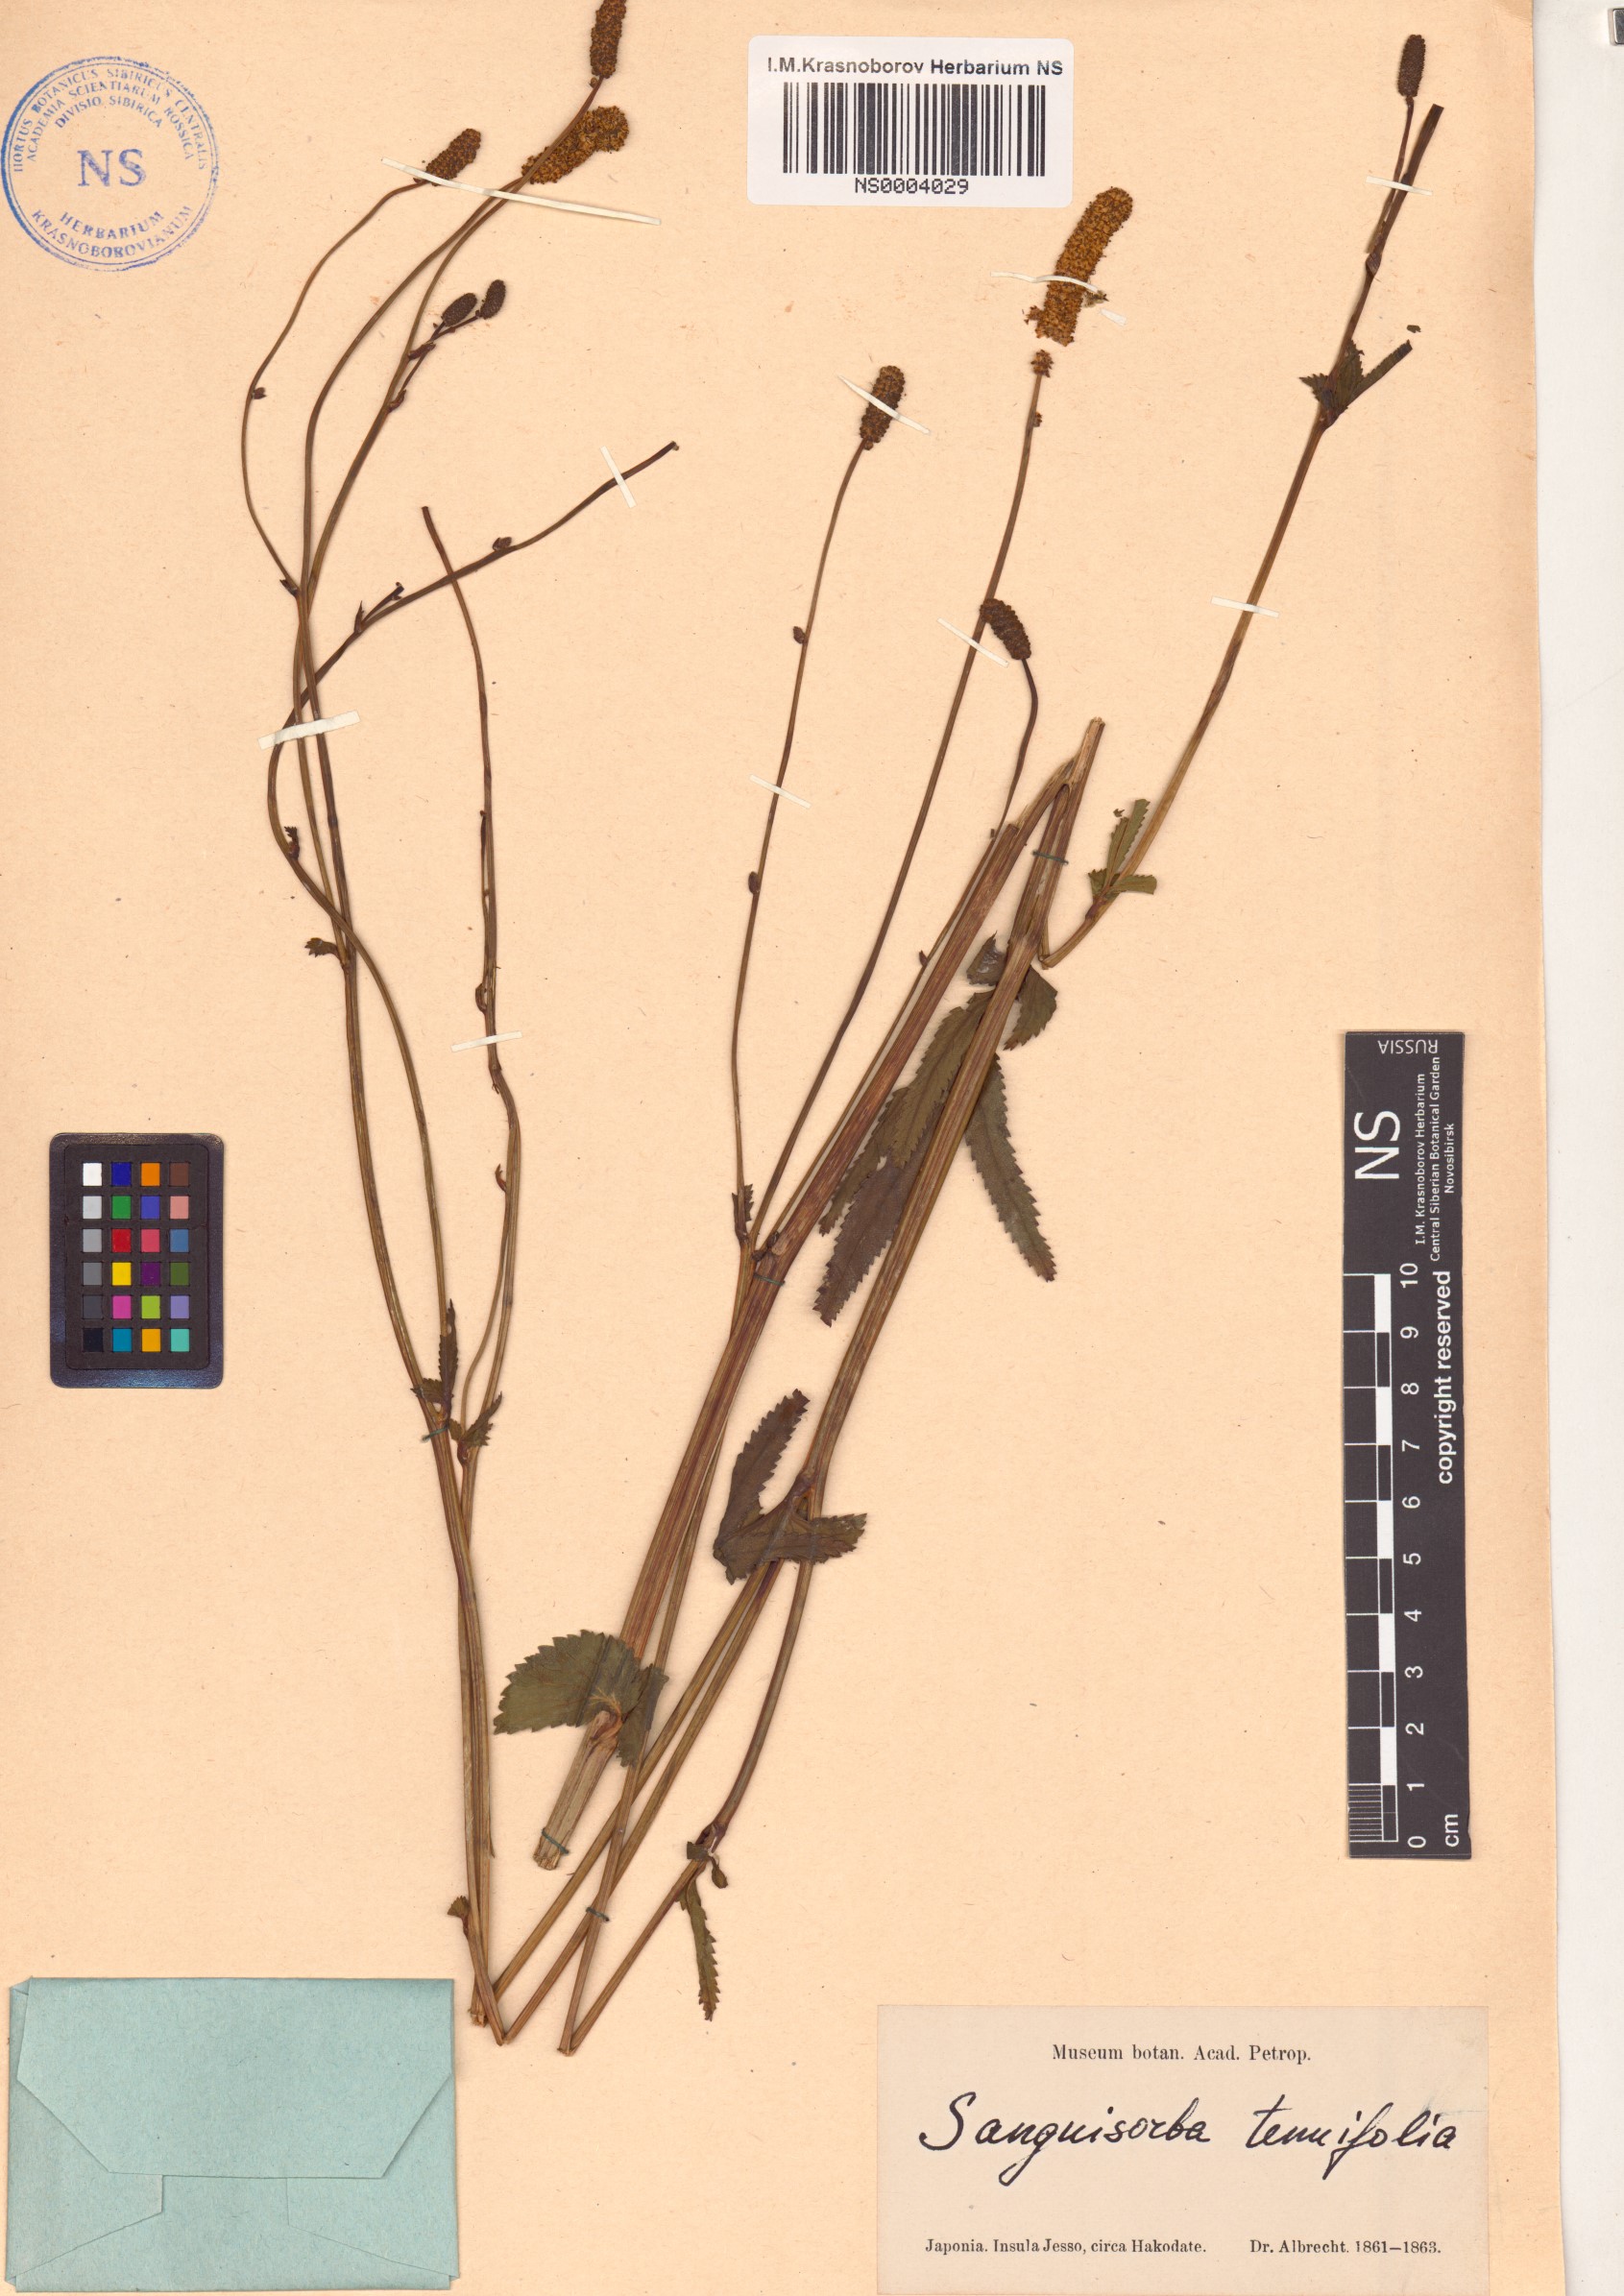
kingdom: Plantae
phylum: Tracheophyta
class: Magnoliopsida
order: Rosales
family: Rosaceae
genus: Poterium
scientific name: Poterium tenuifolium
